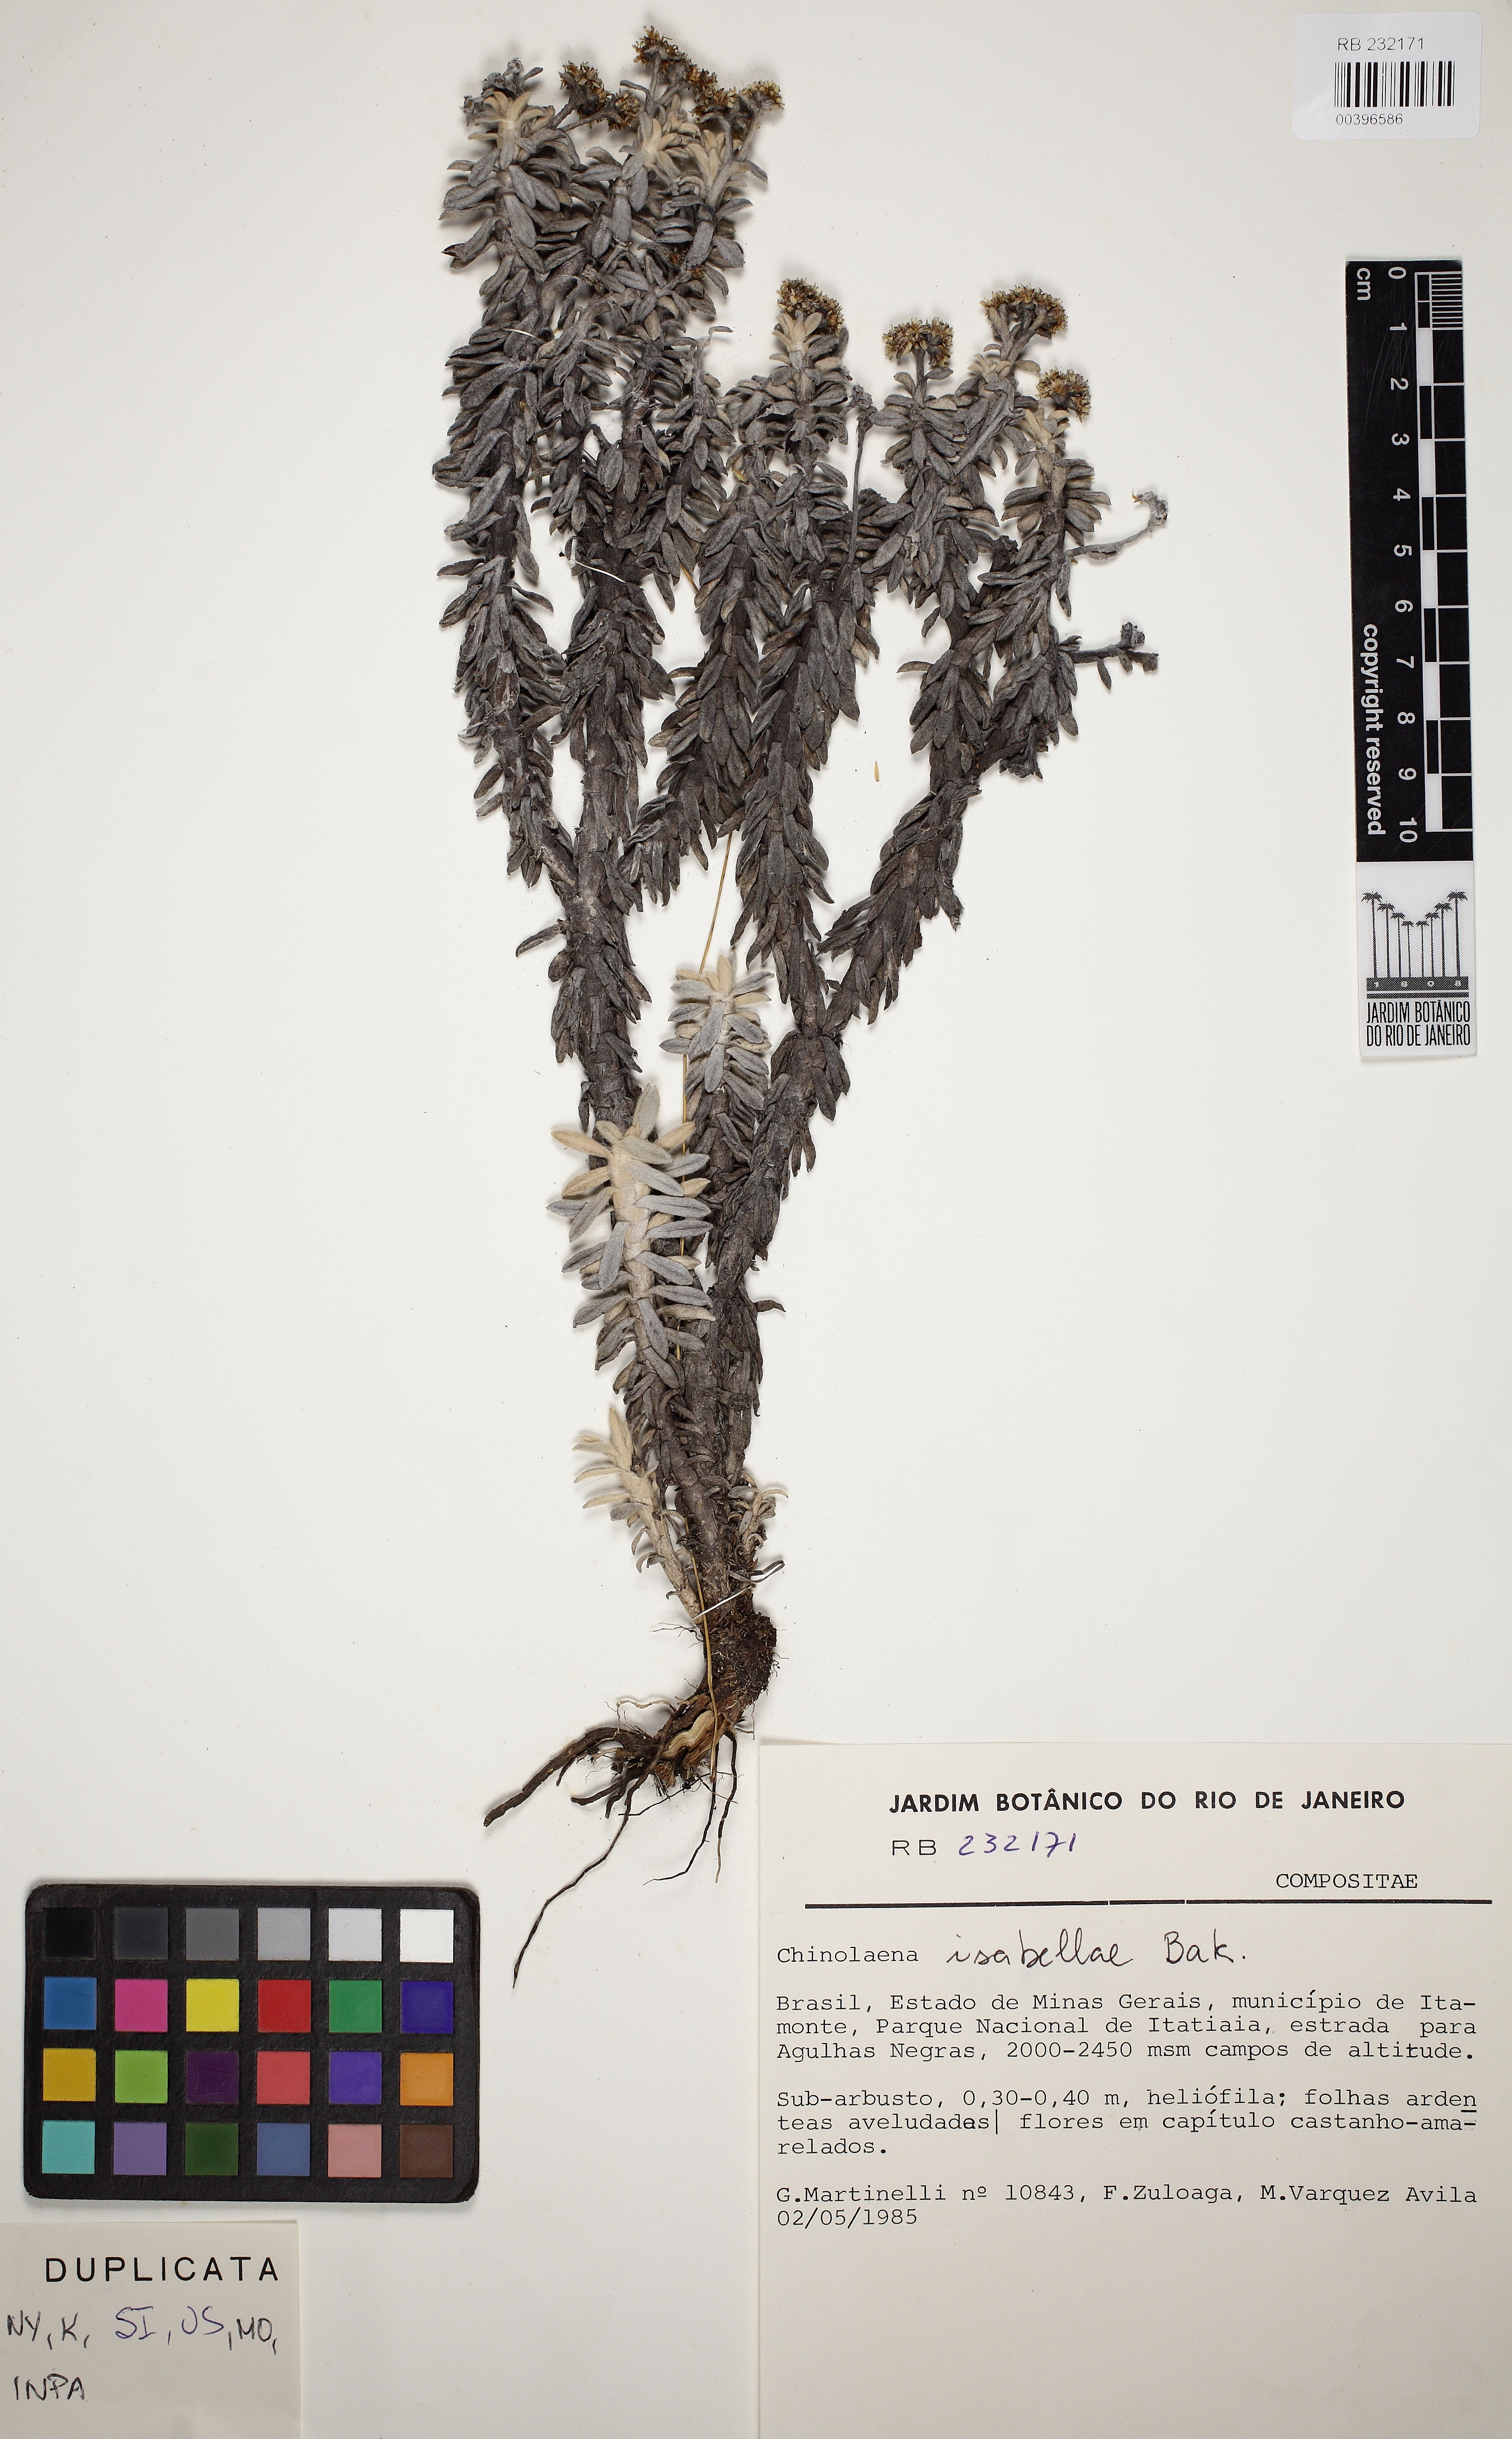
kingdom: Plantae
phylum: Tracheophyta
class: Magnoliopsida
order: Asterales
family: Asteraceae
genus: Chionolaena
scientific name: Chionolaena isabellae
